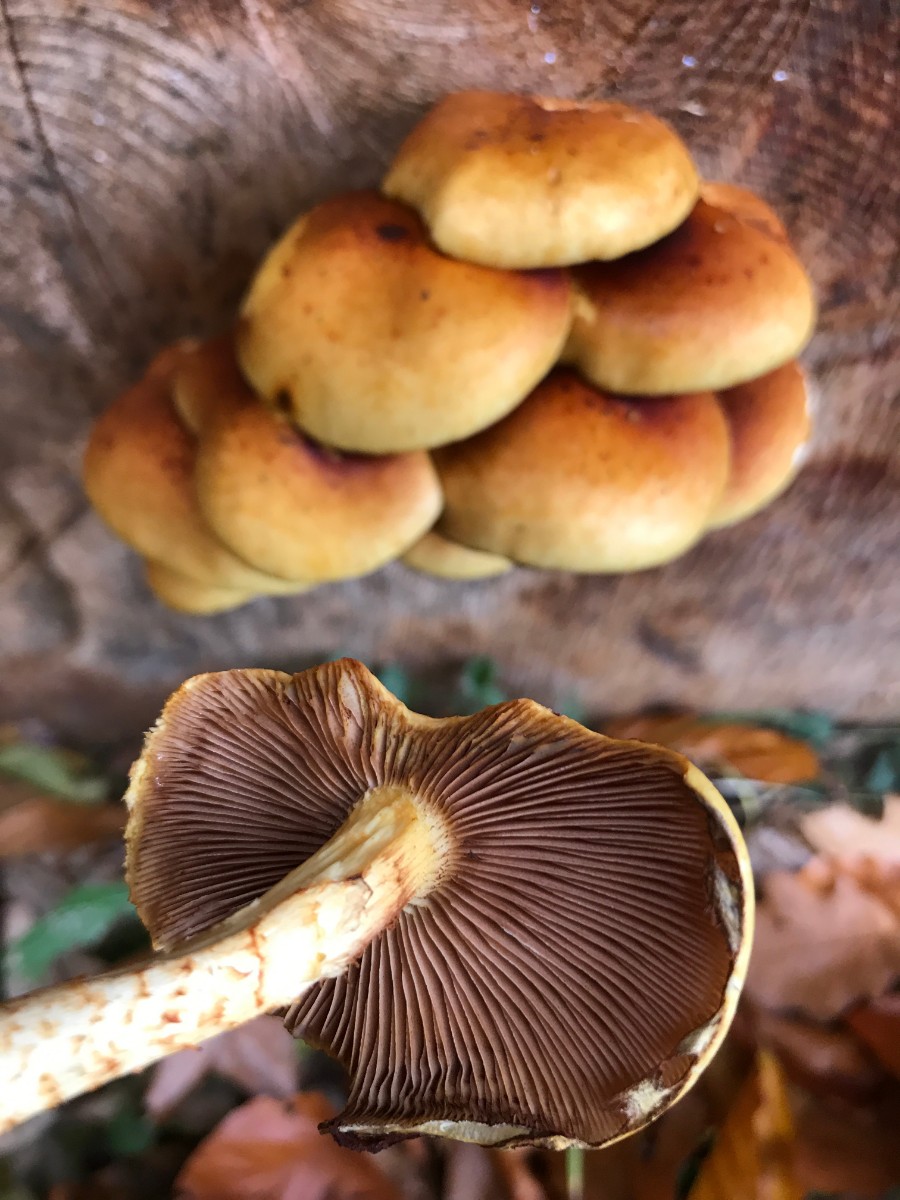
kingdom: Fungi
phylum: Basidiomycota
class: Agaricomycetes
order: Agaricales
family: Strophariaceae
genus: Pholiota
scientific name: Pholiota adiposa
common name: højtsiddende skælhat
